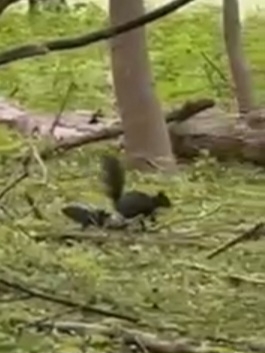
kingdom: Animalia
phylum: Chordata
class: Mammalia
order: Rodentia
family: Sciuridae
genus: Sciurus
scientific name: Sciurus vulgaris
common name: Egern
